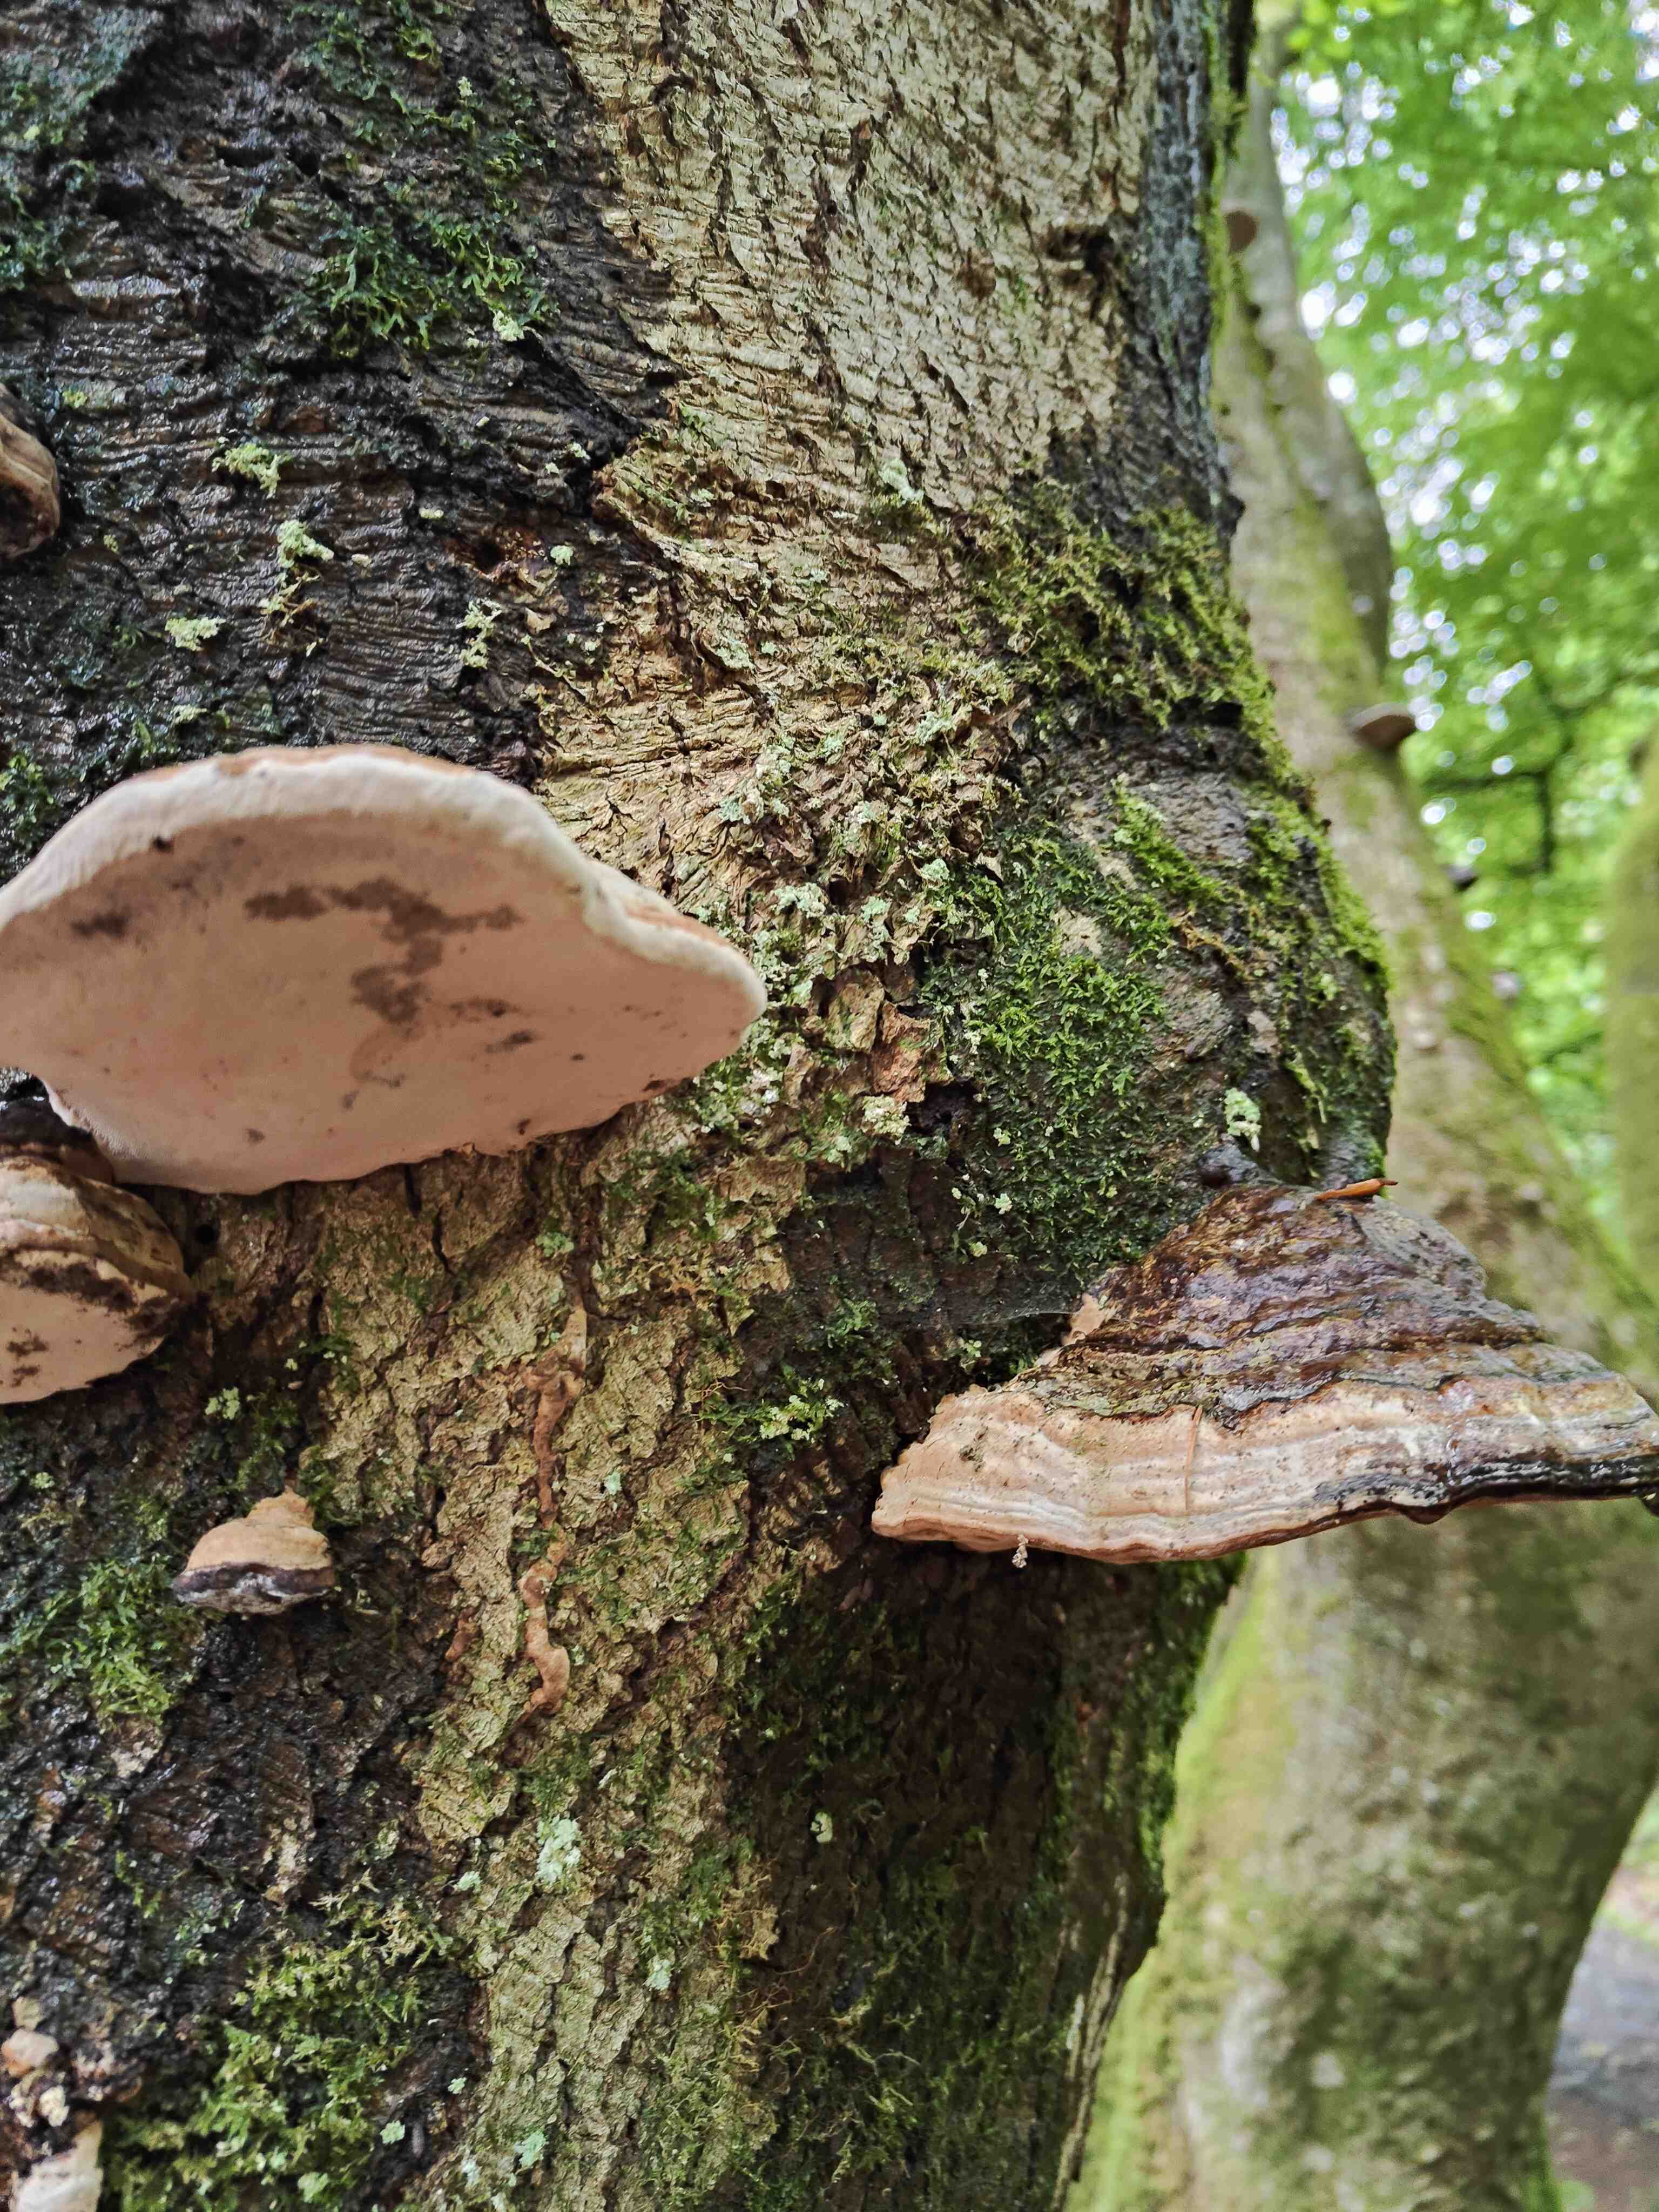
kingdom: Fungi
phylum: Basidiomycota
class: Agaricomycetes
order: Polyporales
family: Polyporaceae
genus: Fomes
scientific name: Fomes fomentarius
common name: tøndersvamp
